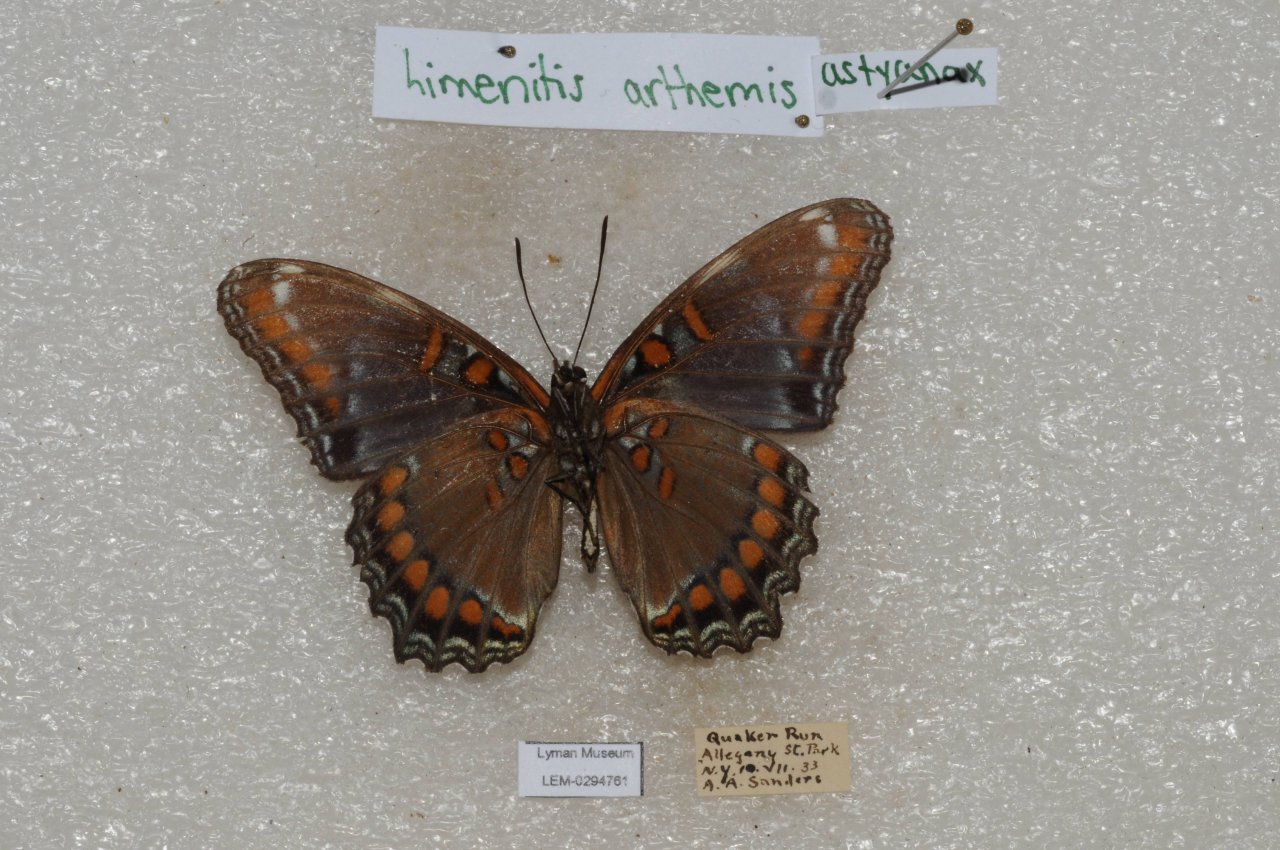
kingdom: Animalia
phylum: Arthropoda
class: Insecta
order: Lepidoptera
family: Nymphalidae
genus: Limenitis
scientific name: Limenitis
